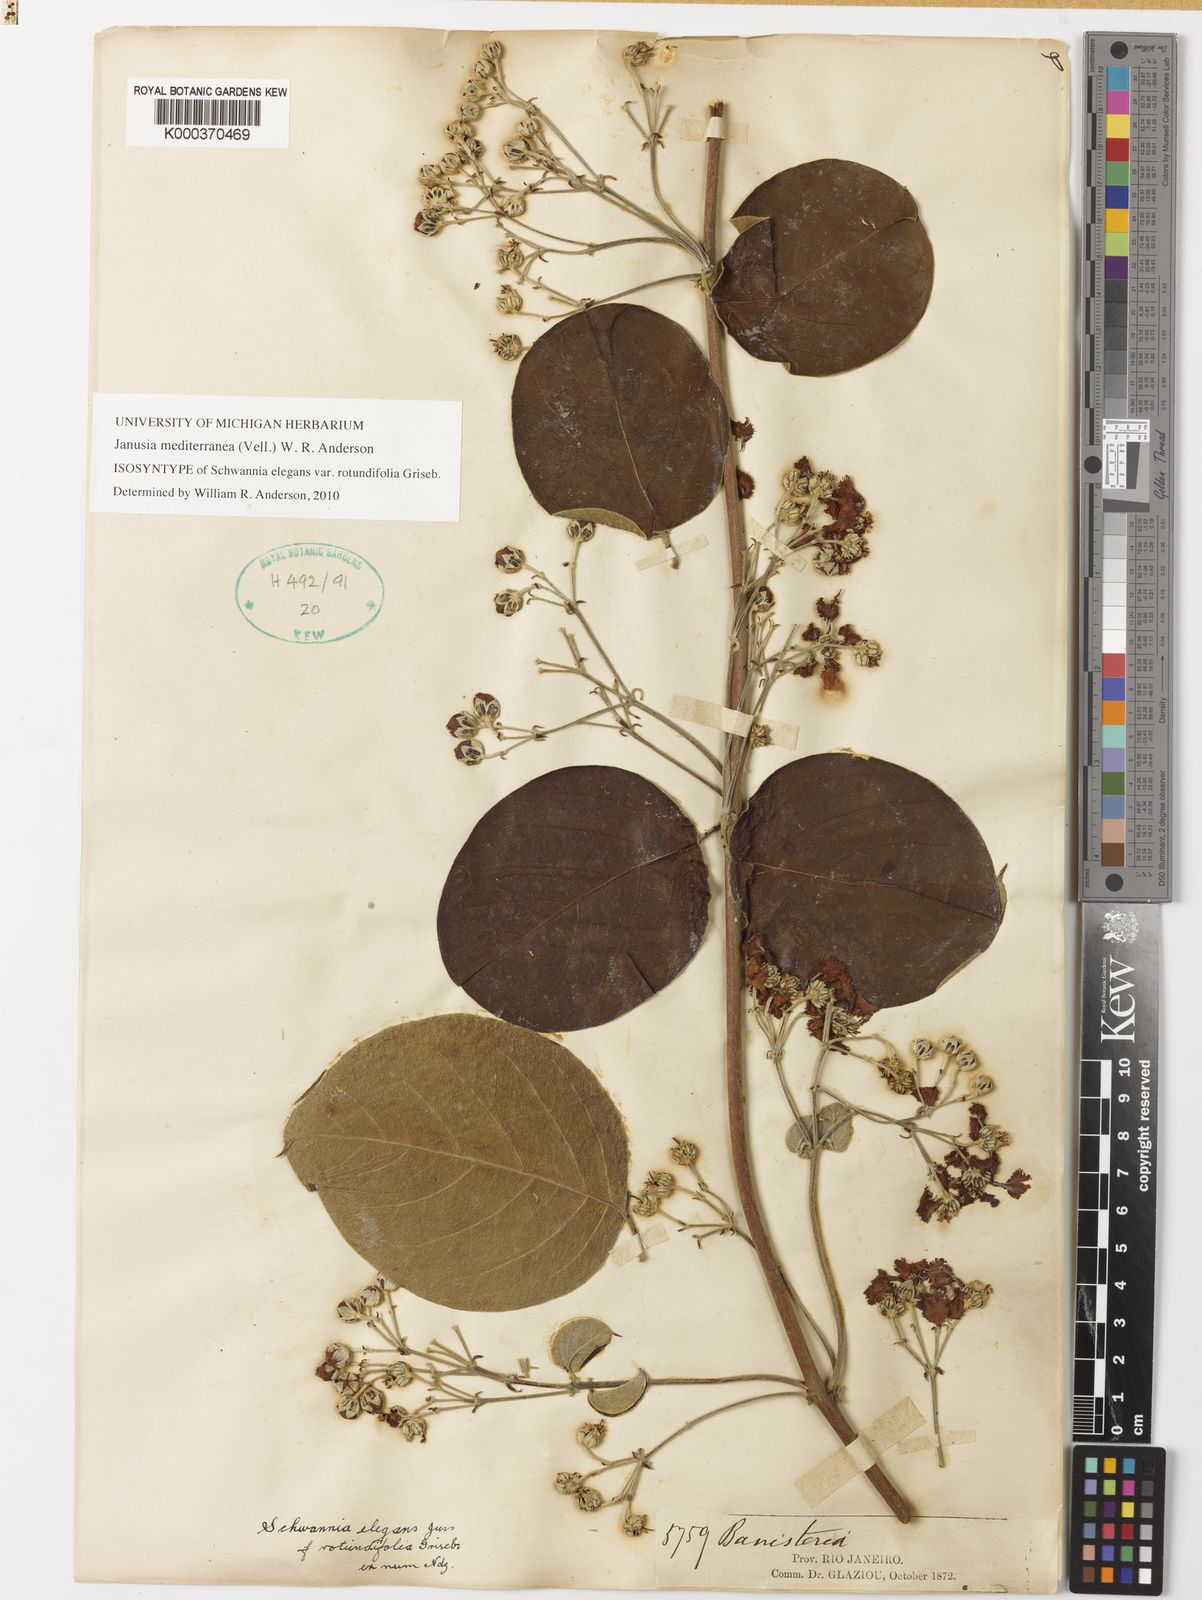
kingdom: Plantae
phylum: Tracheophyta
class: Magnoliopsida
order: Malpighiales
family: Malpighiaceae
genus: Janusia
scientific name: Janusia mediterranea
